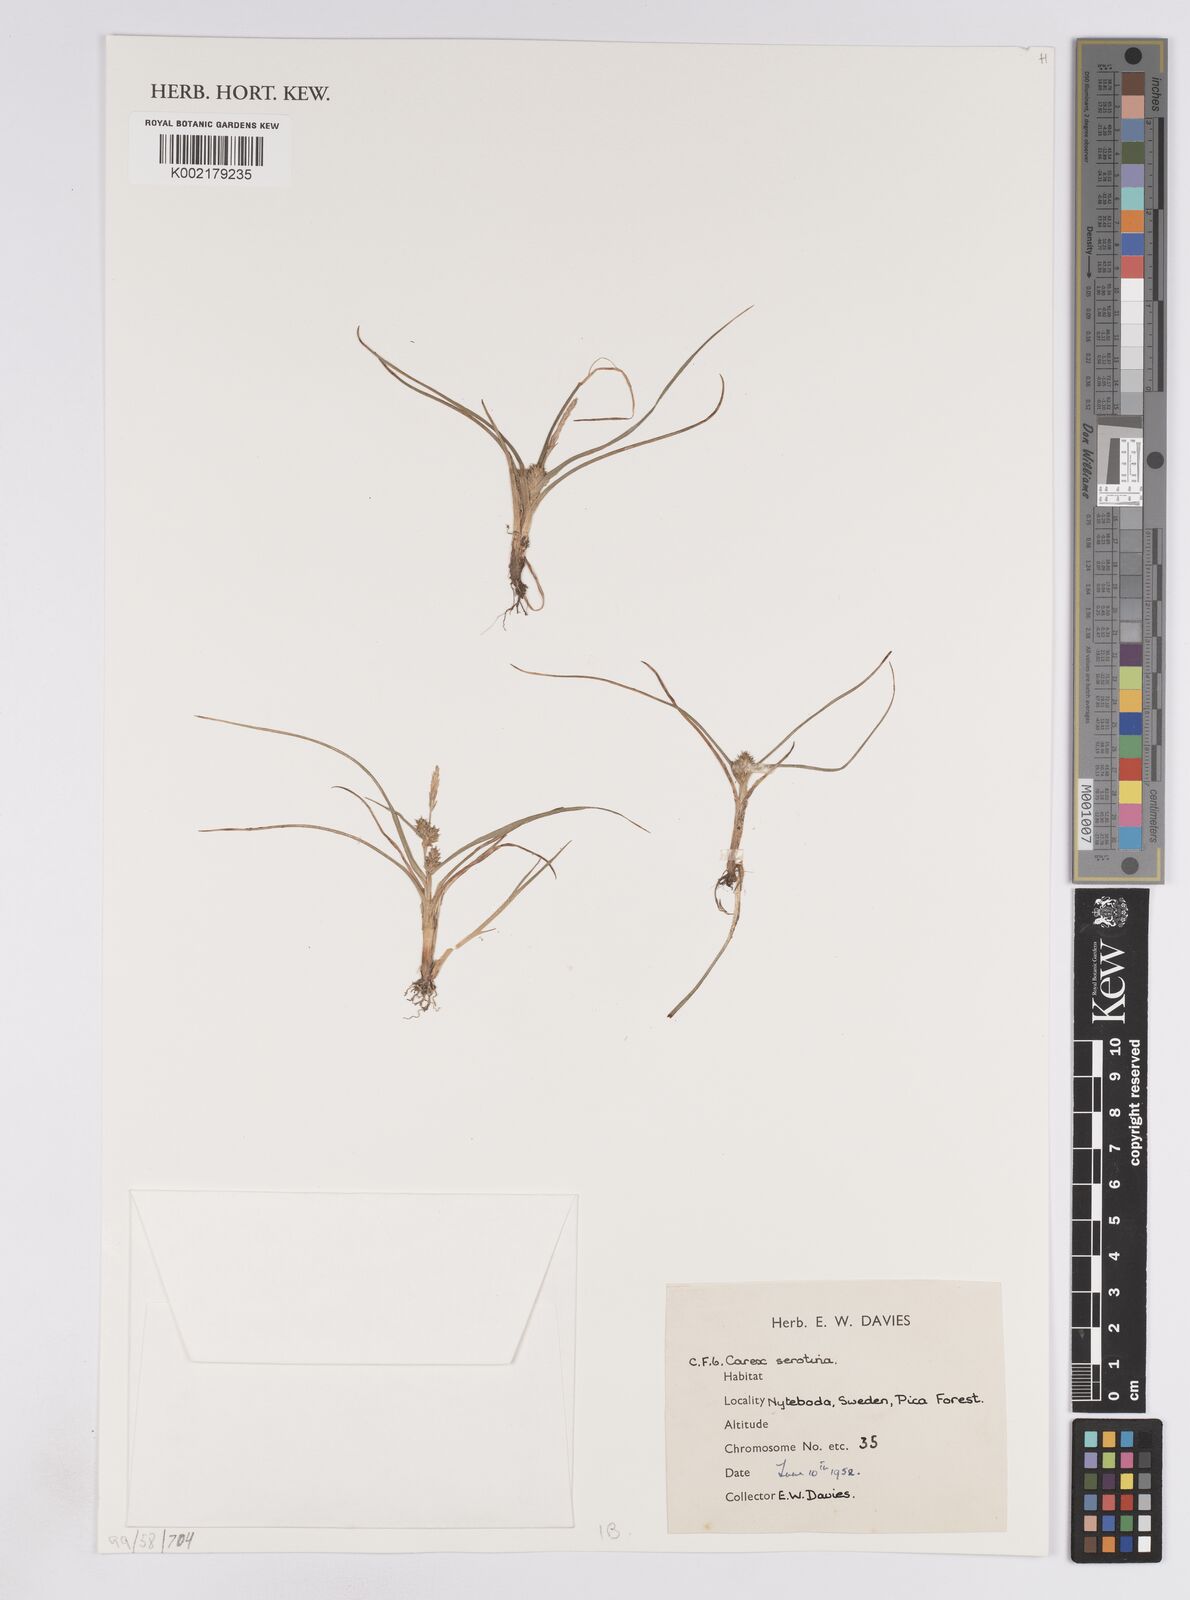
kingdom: Plantae
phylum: Tracheophyta
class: Liliopsida
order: Poales
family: Cyperaceae
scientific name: Cyperaceae
